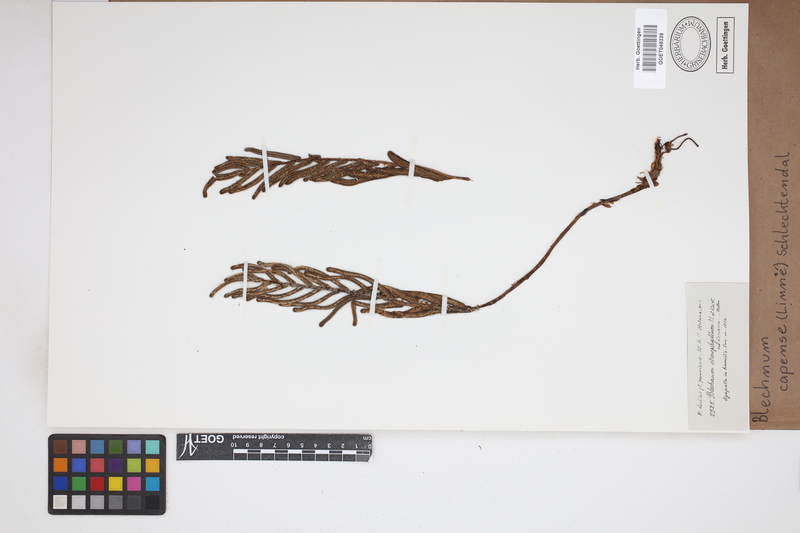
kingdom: Plantae
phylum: Tracheophyta
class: Polypodiopsida
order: Polypodiales
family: Blechnaceae
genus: Parablechnum
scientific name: Parablechnum capense
